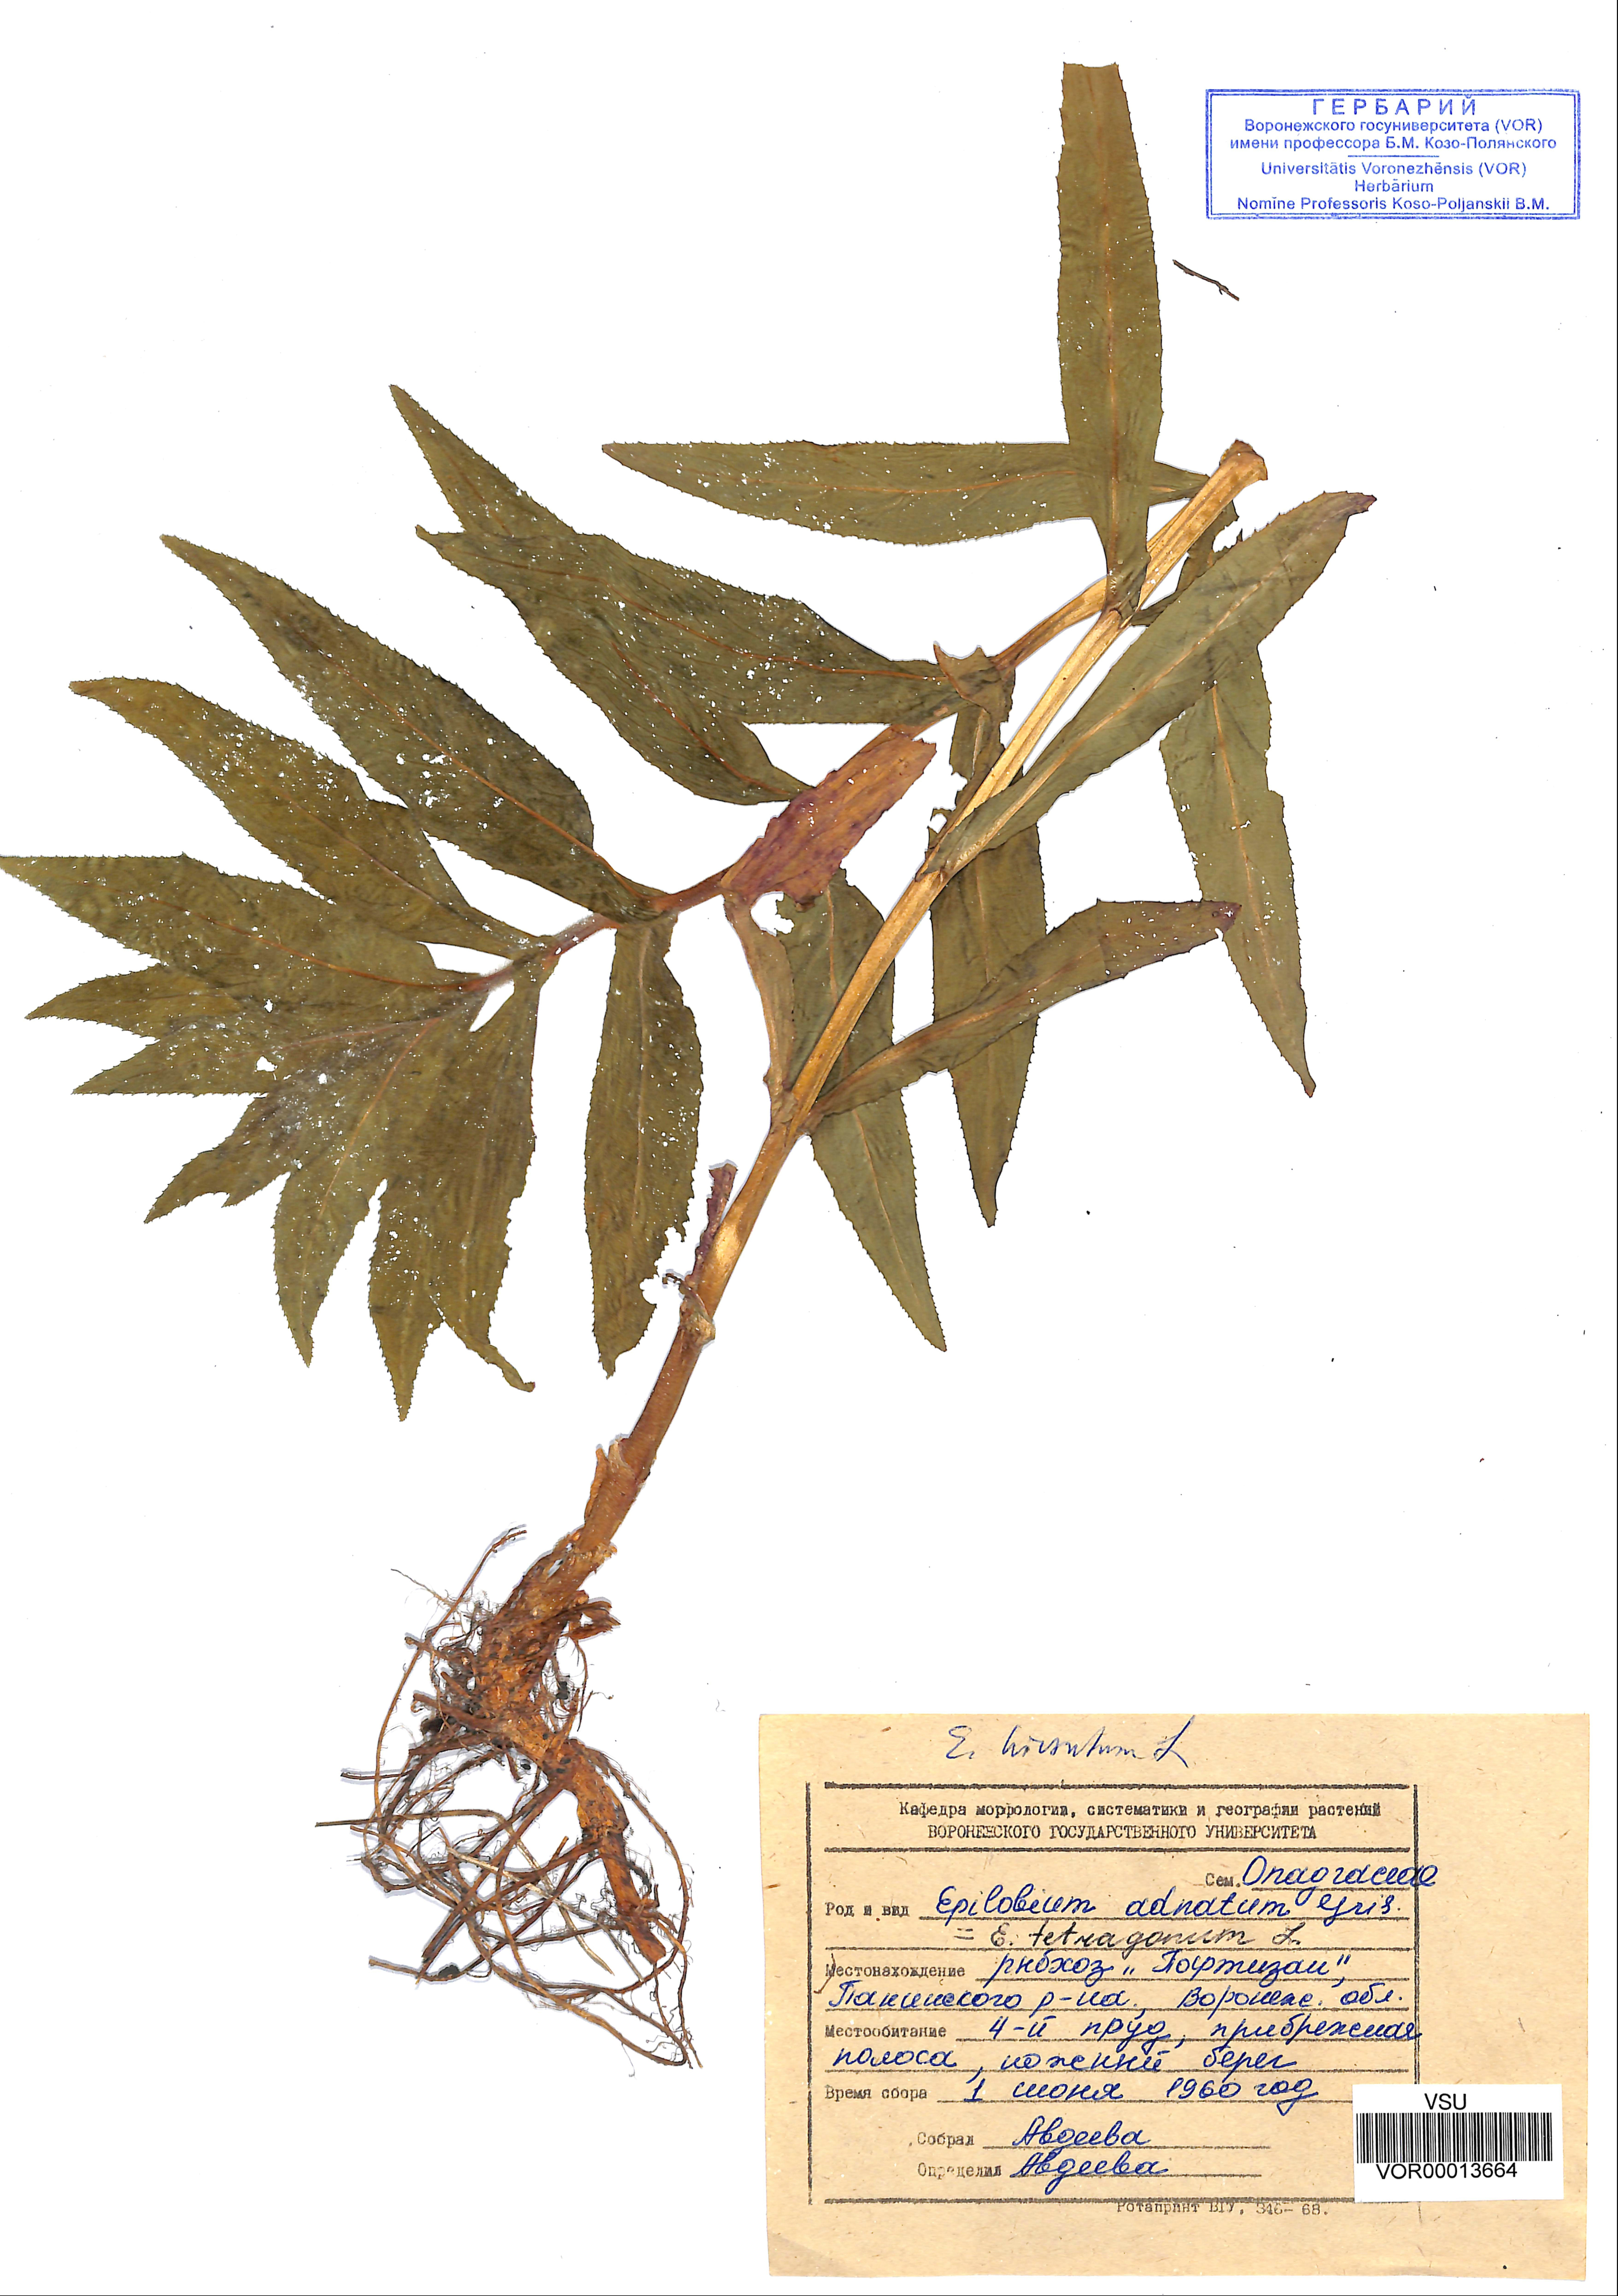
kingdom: Plantae
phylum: Tracheophyta
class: Magnoliopsida
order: Myrtales
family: Onagraceae
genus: Epilobium
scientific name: Epilobium tetragonum
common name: Square-stemmed willowherb
